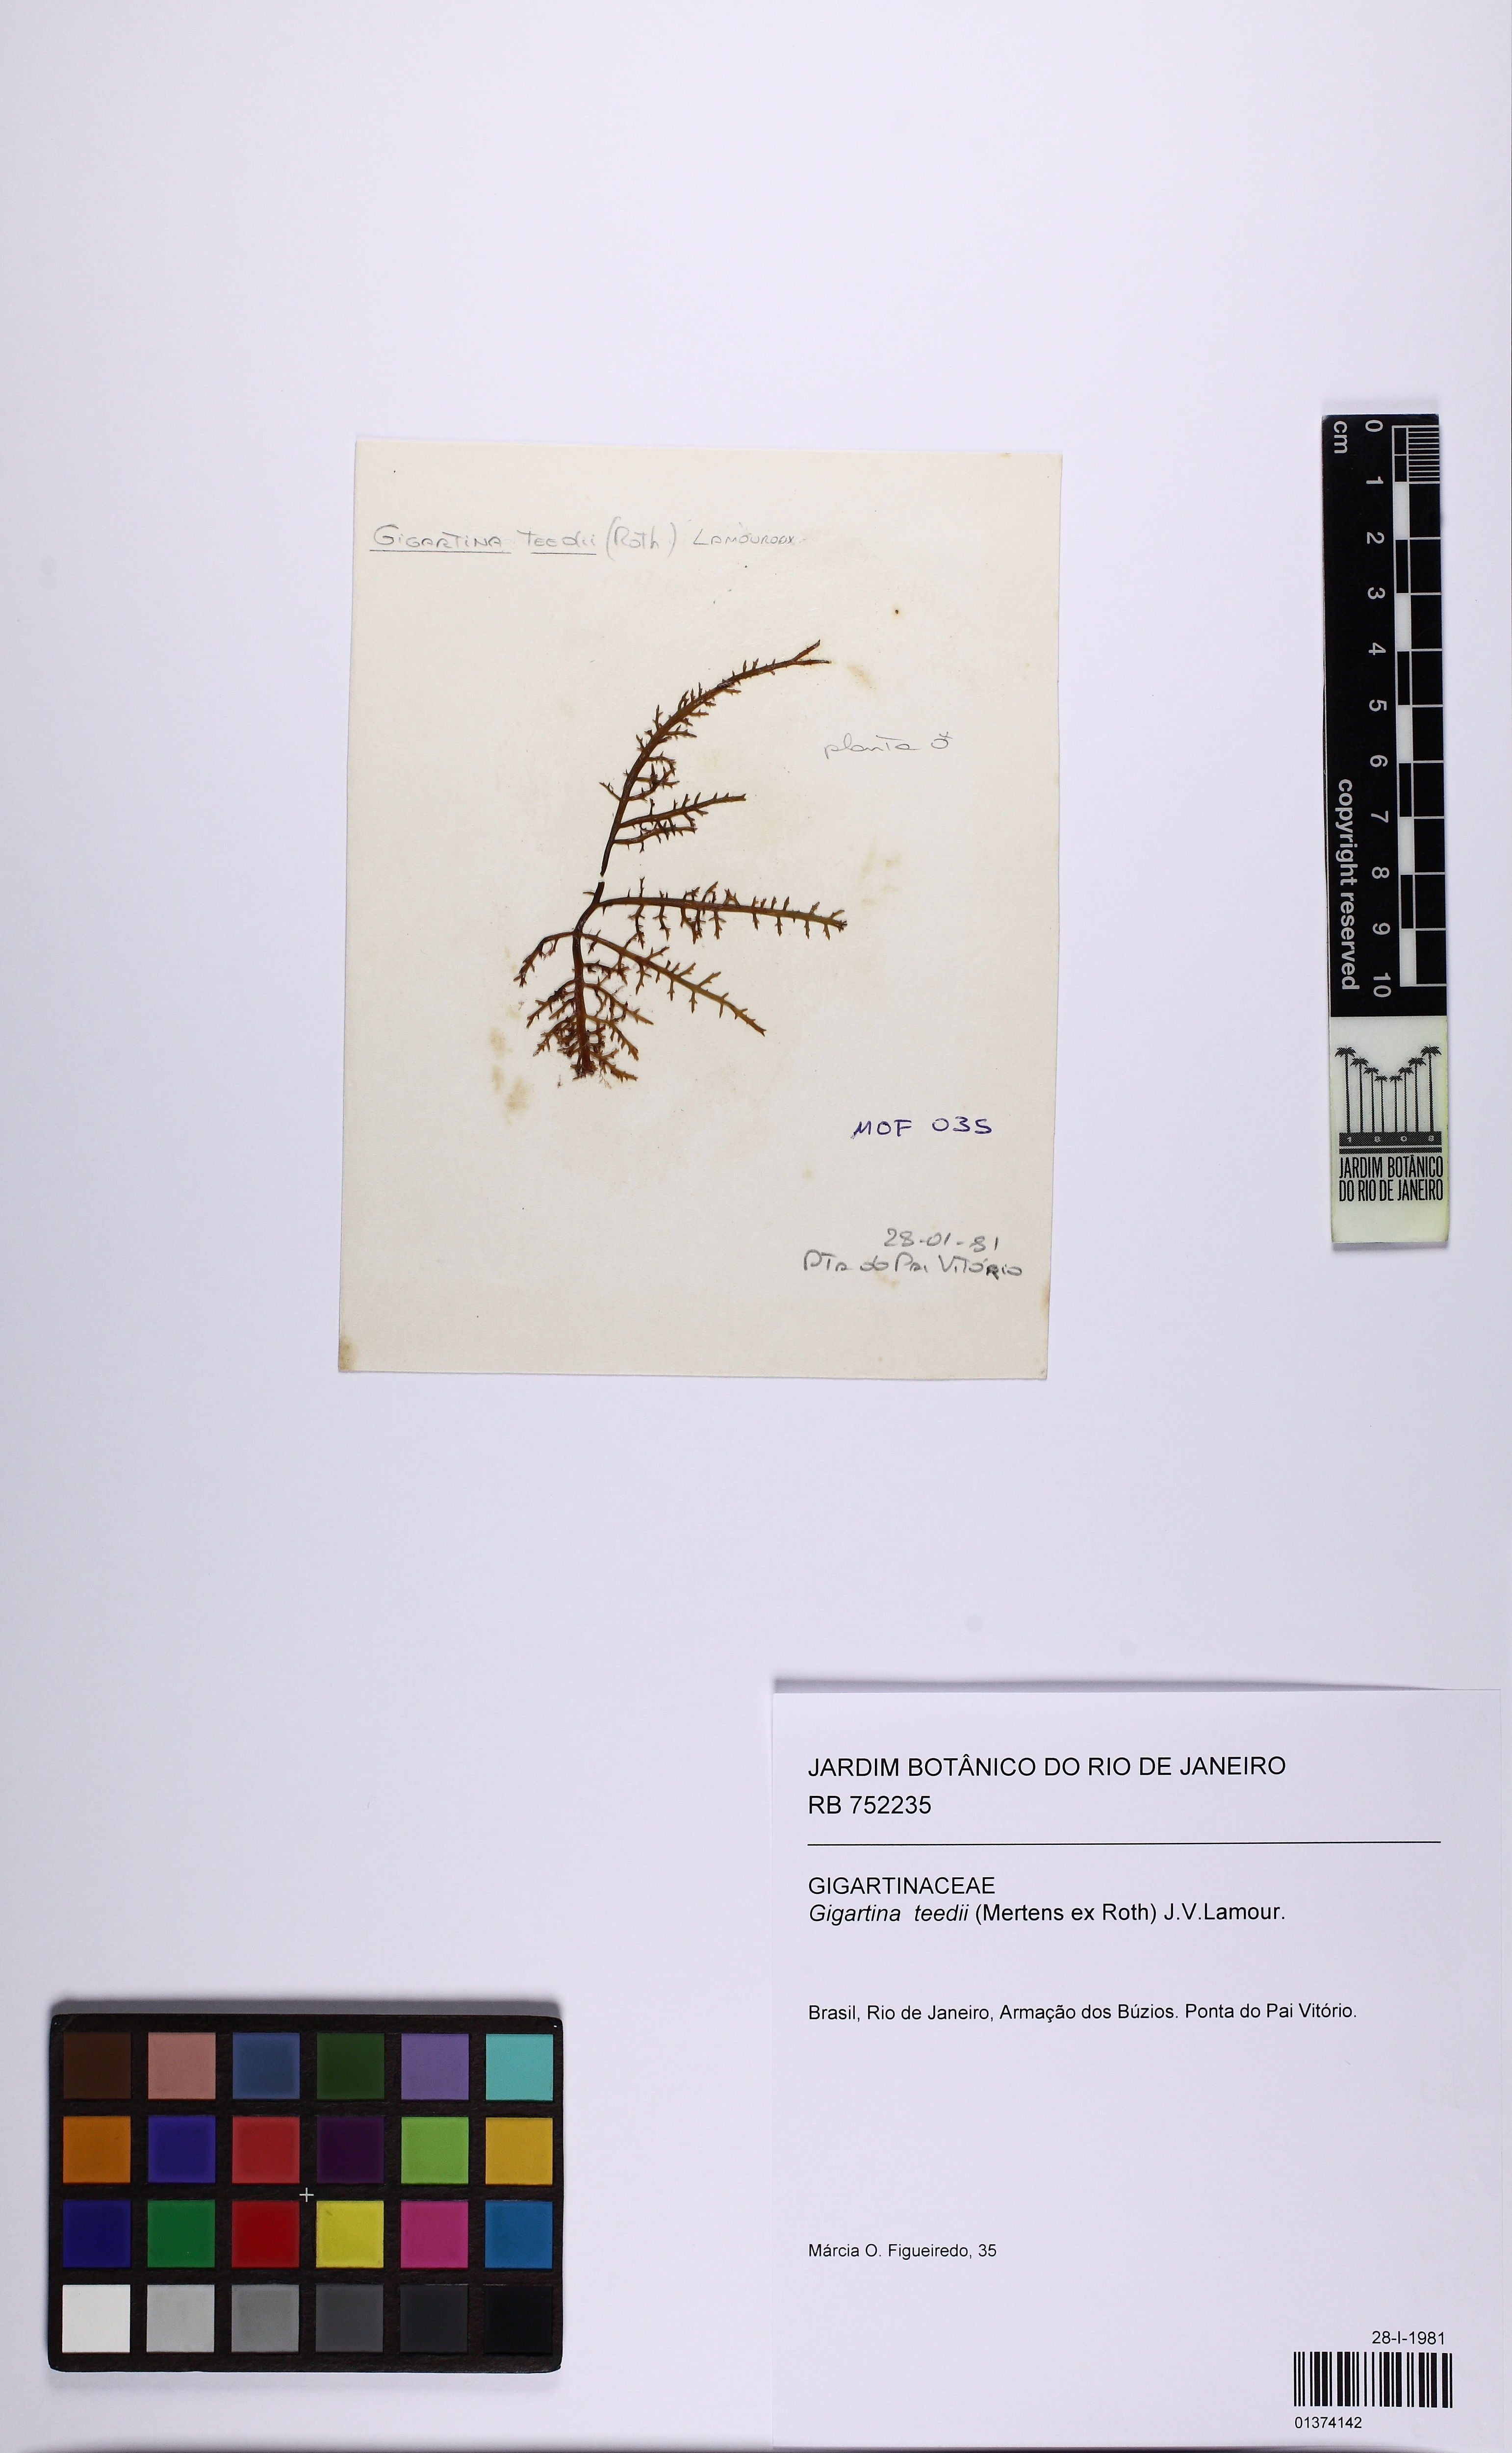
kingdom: Plantae
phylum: Rhodophyta
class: Florideophyceae
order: Gigartinales
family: Gigartinaceae
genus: Chondracanthus
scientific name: Chondracanthus teedei
